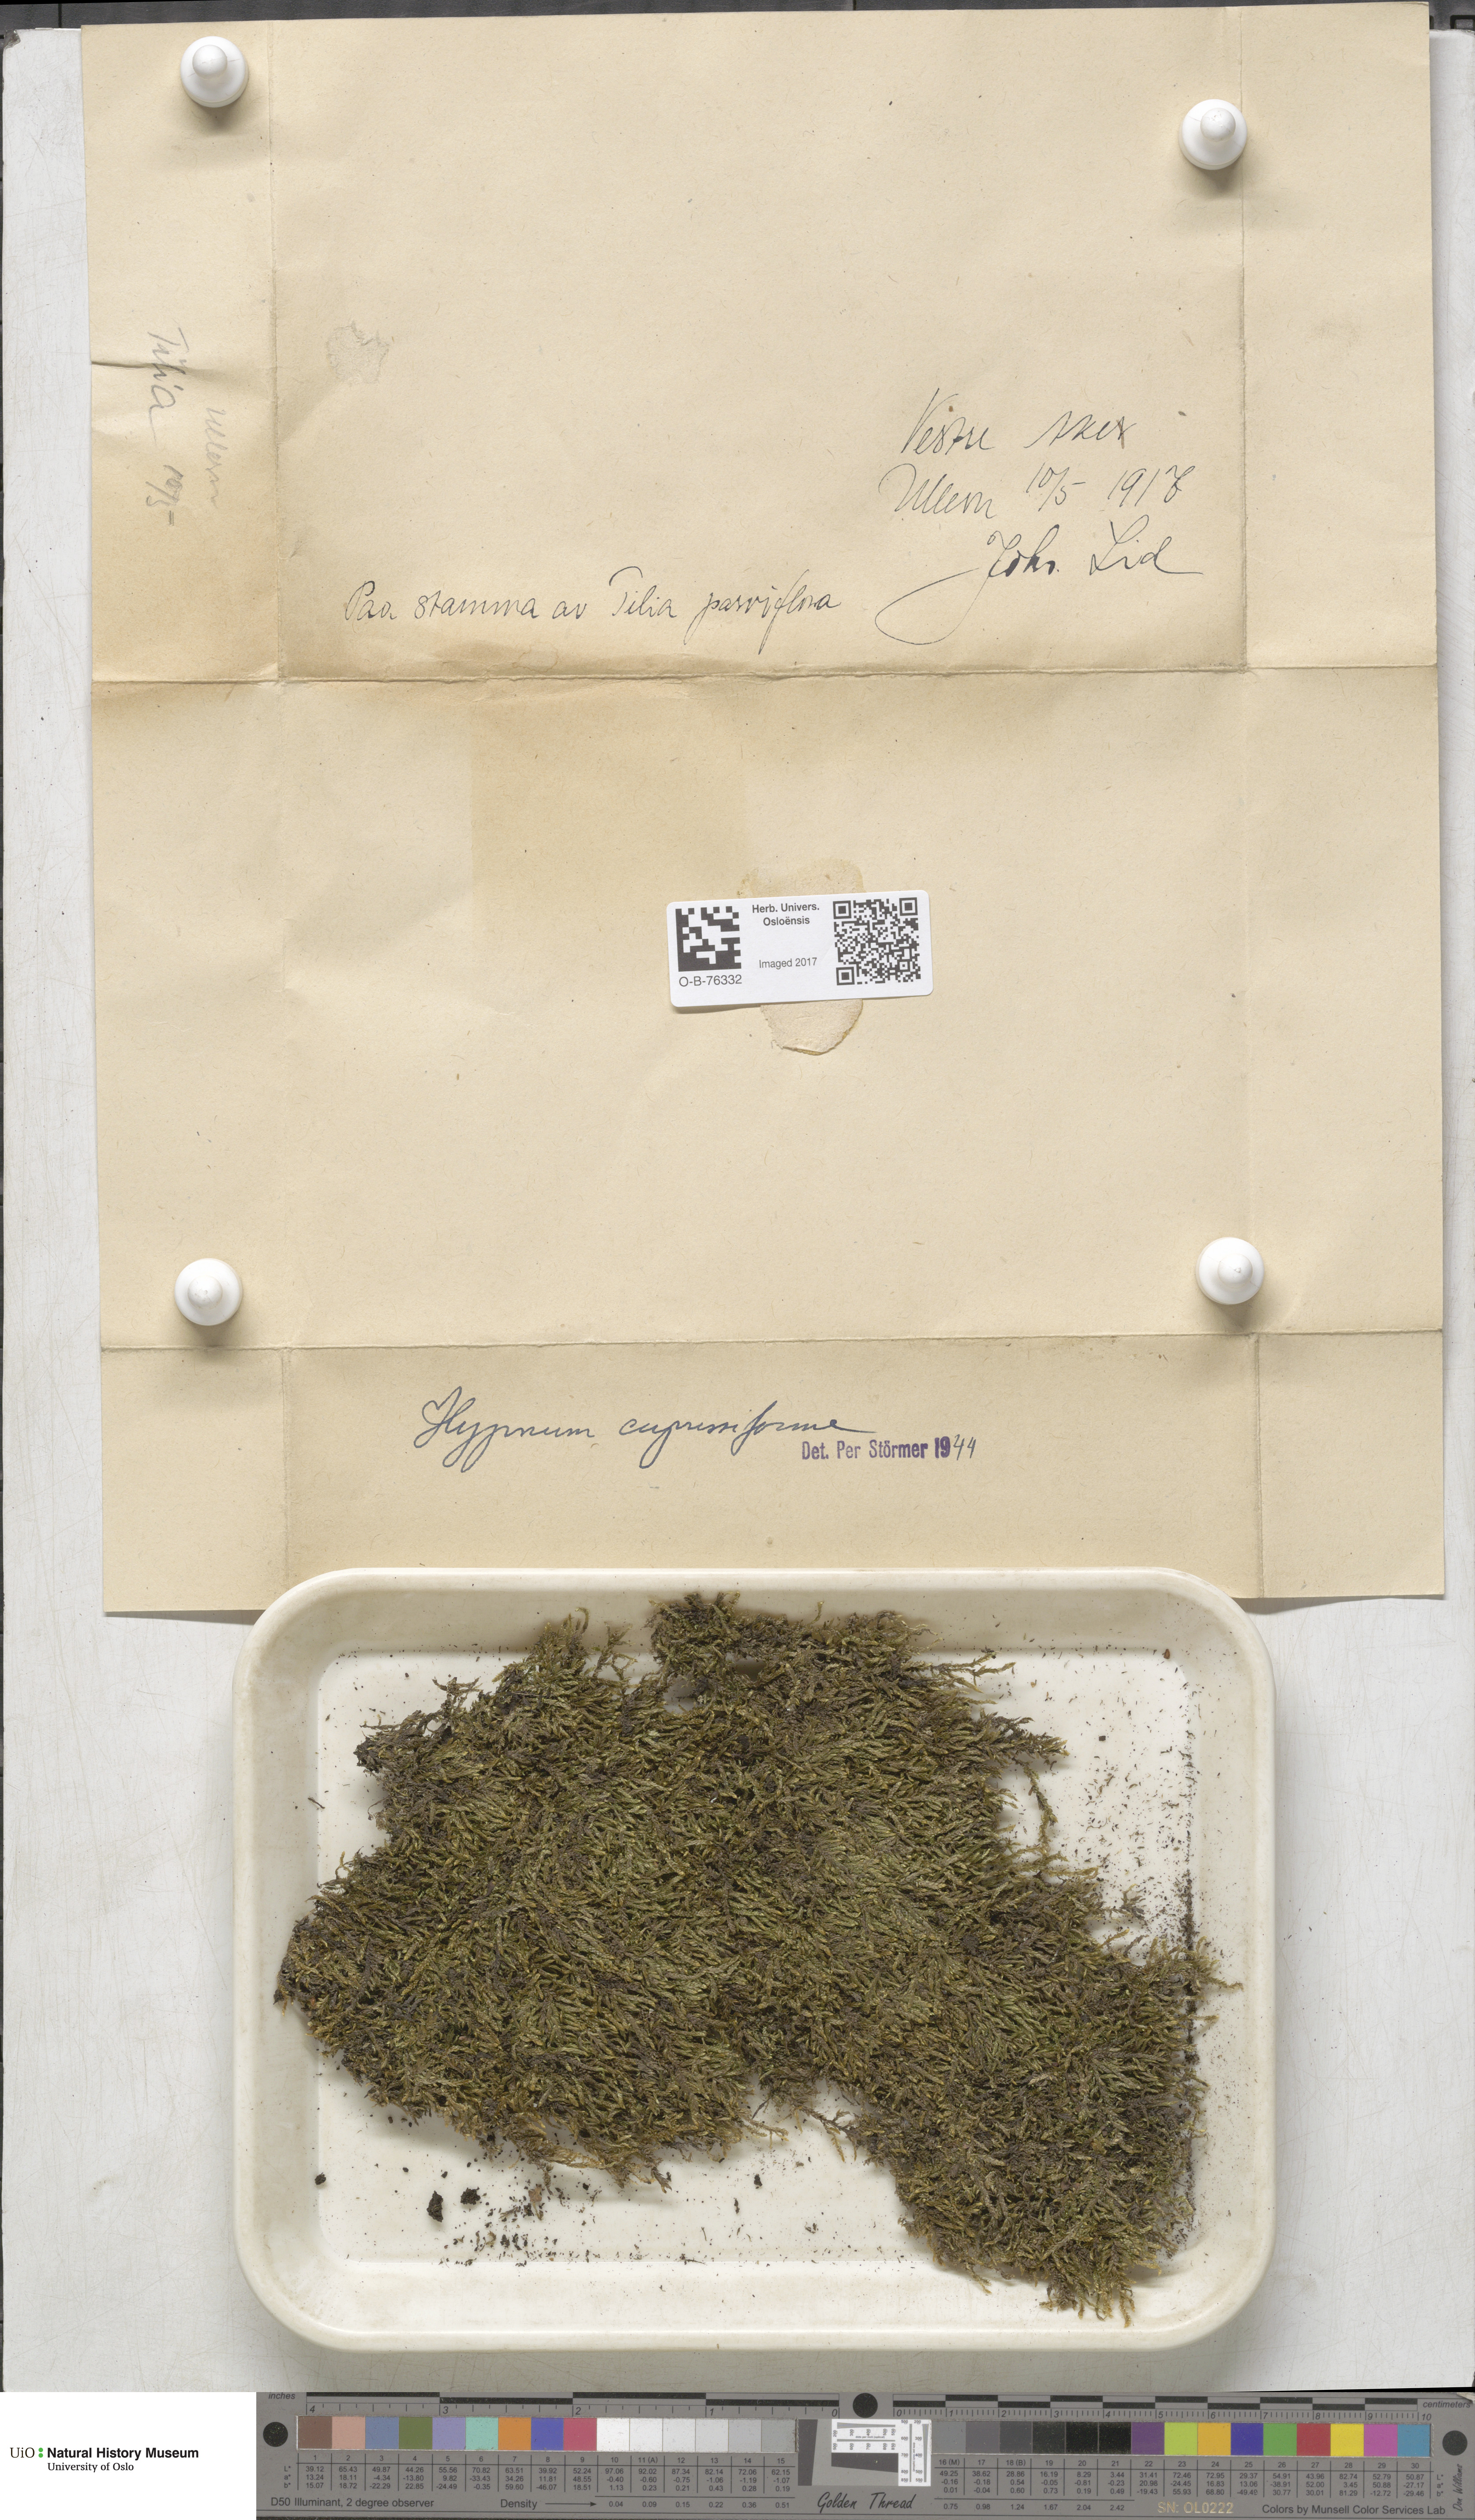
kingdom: Plantae
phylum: Bryophyta
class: Bryopsida
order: Hypnales
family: Hypnaceae
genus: Hypnum
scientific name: Hypnum cupressiforme
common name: Cypress-leaved plait-moss
